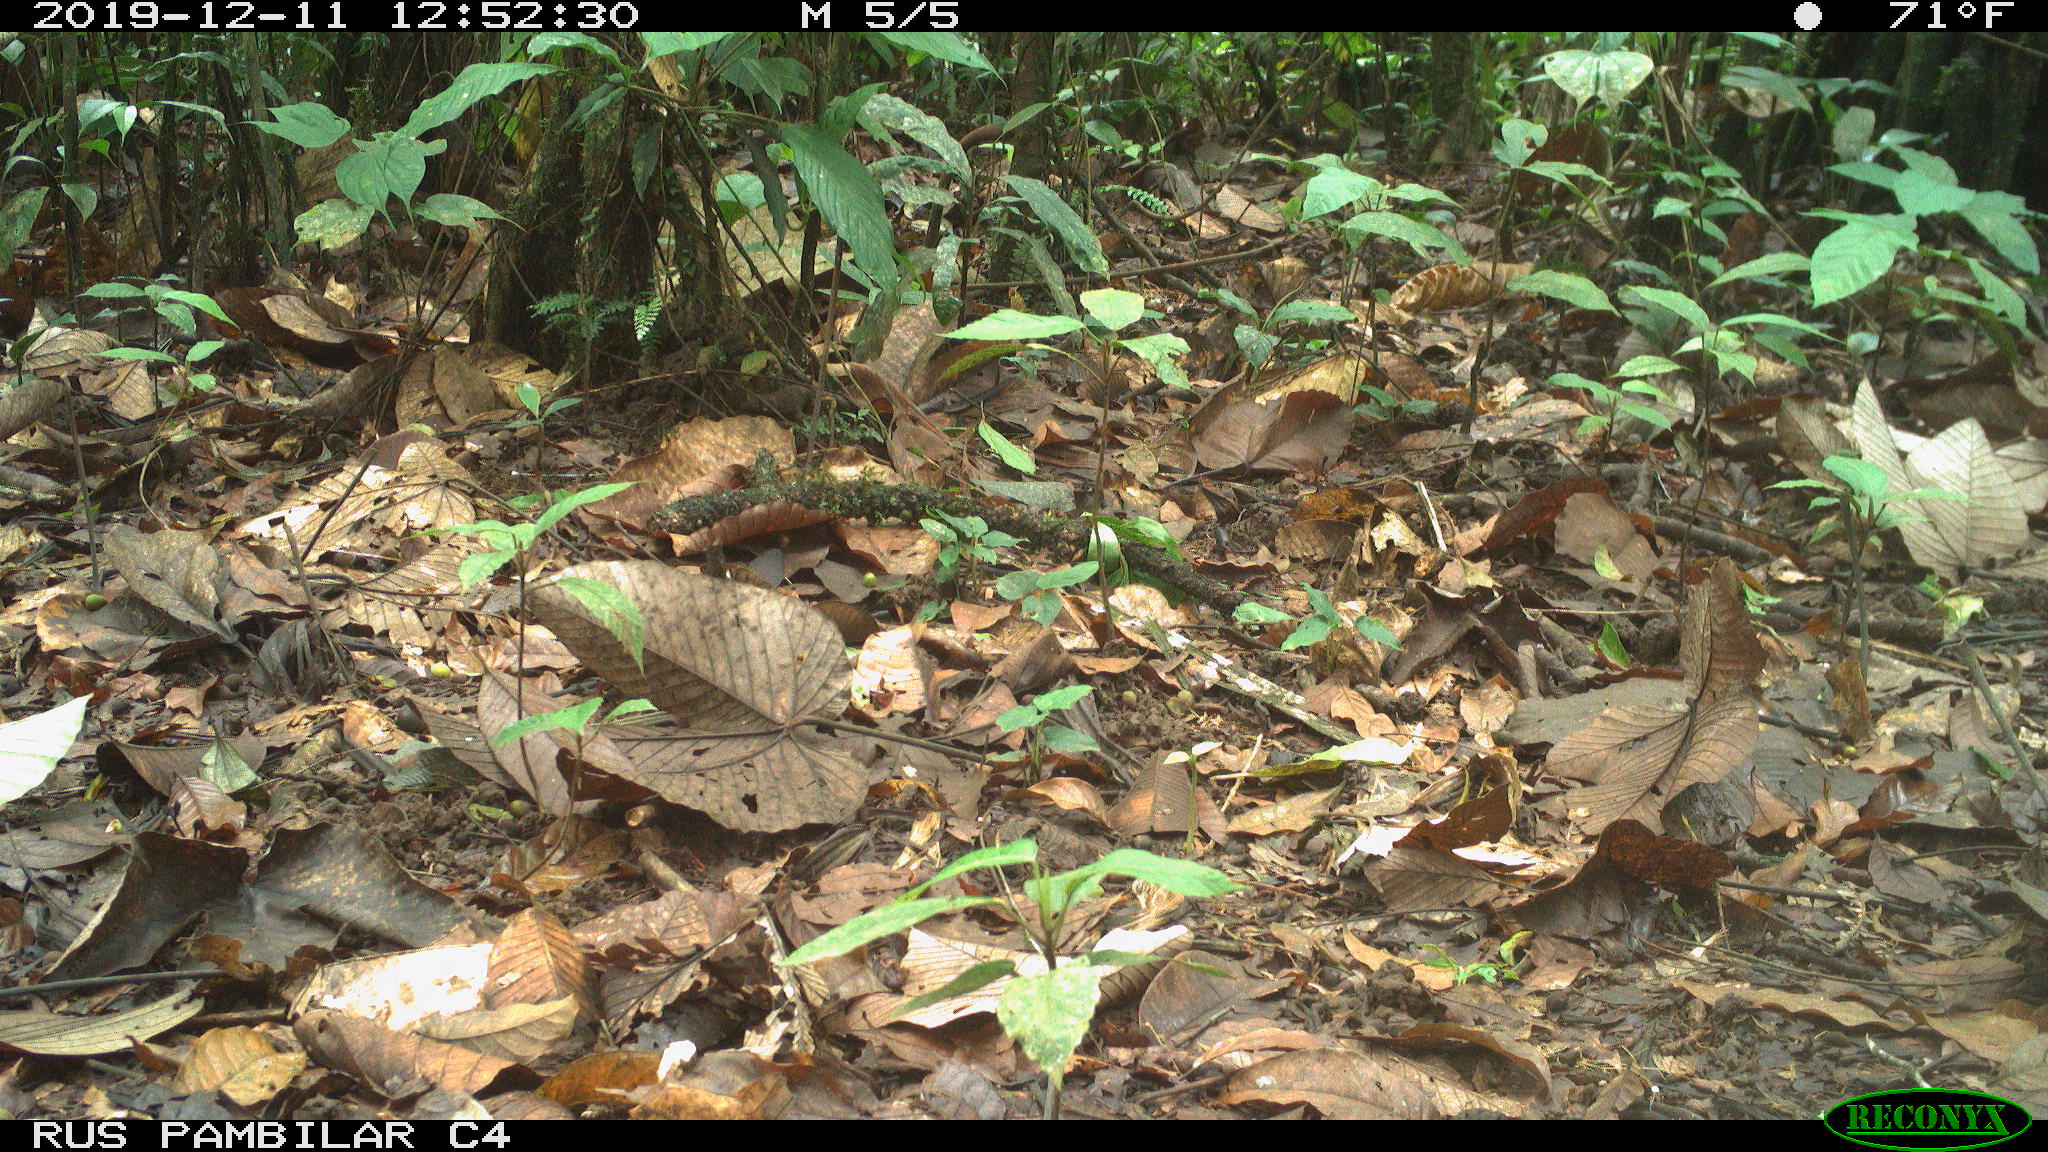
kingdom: Animalia
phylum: Chordata
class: Aves
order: Columbiformes
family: Columbidae
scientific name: Columbidae
